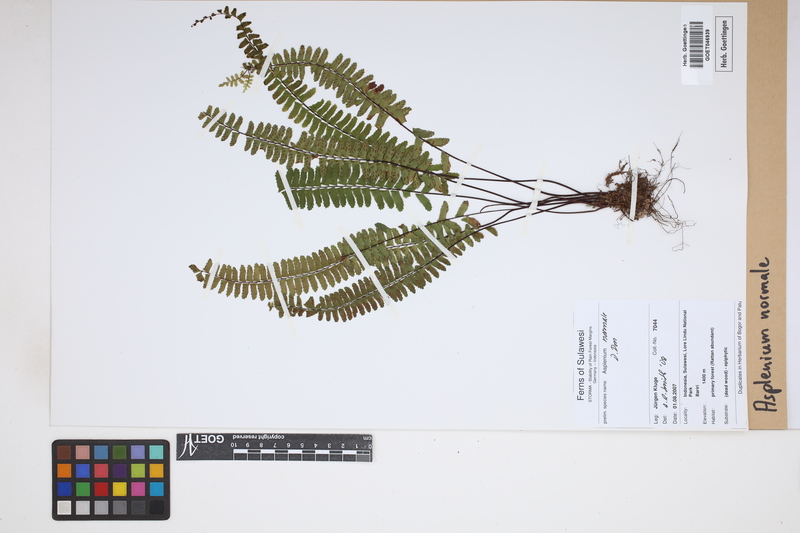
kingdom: Plantae
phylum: Tracheophyta
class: Polypodiopsida
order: Polypodiales
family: Aspleniaceae
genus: Asplenium
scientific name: Asplenium normale
